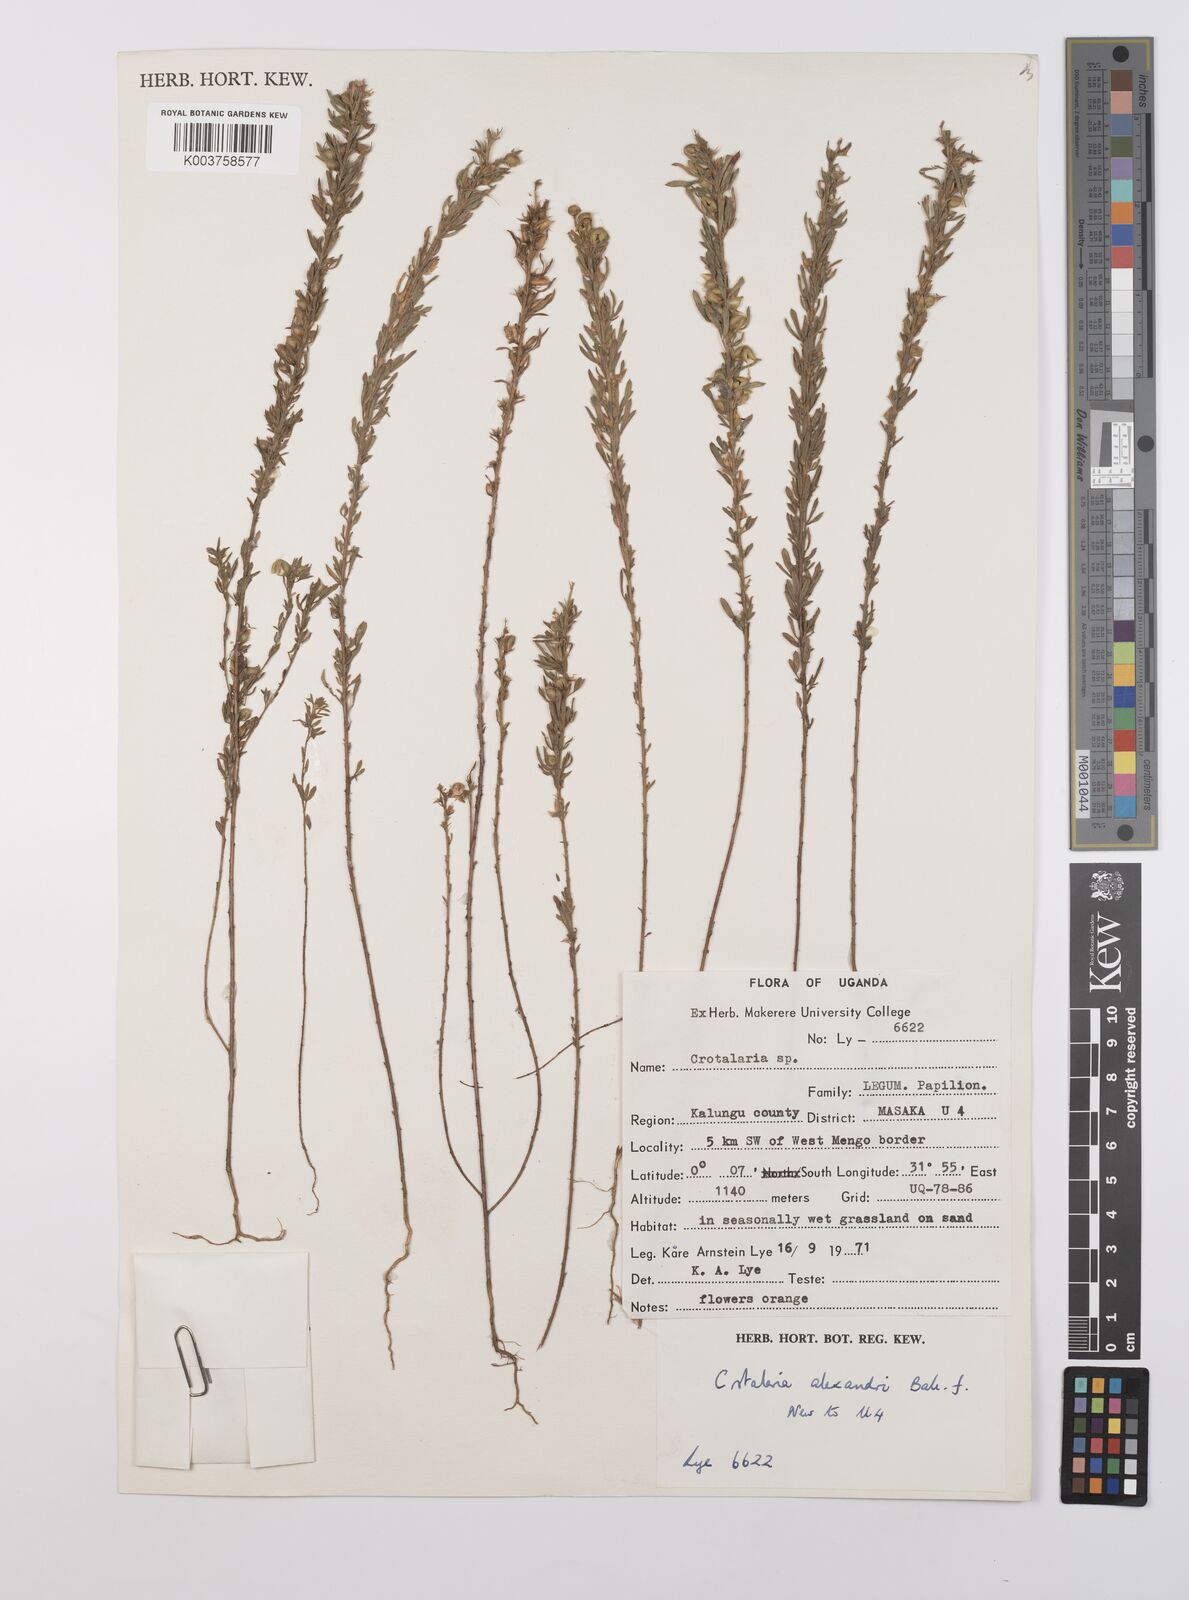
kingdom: Plantae
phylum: Tracheophyta
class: Magnoliopsida
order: Fabales
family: Fabaceae
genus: Crotalaria
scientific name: Crotalaria alexandri
